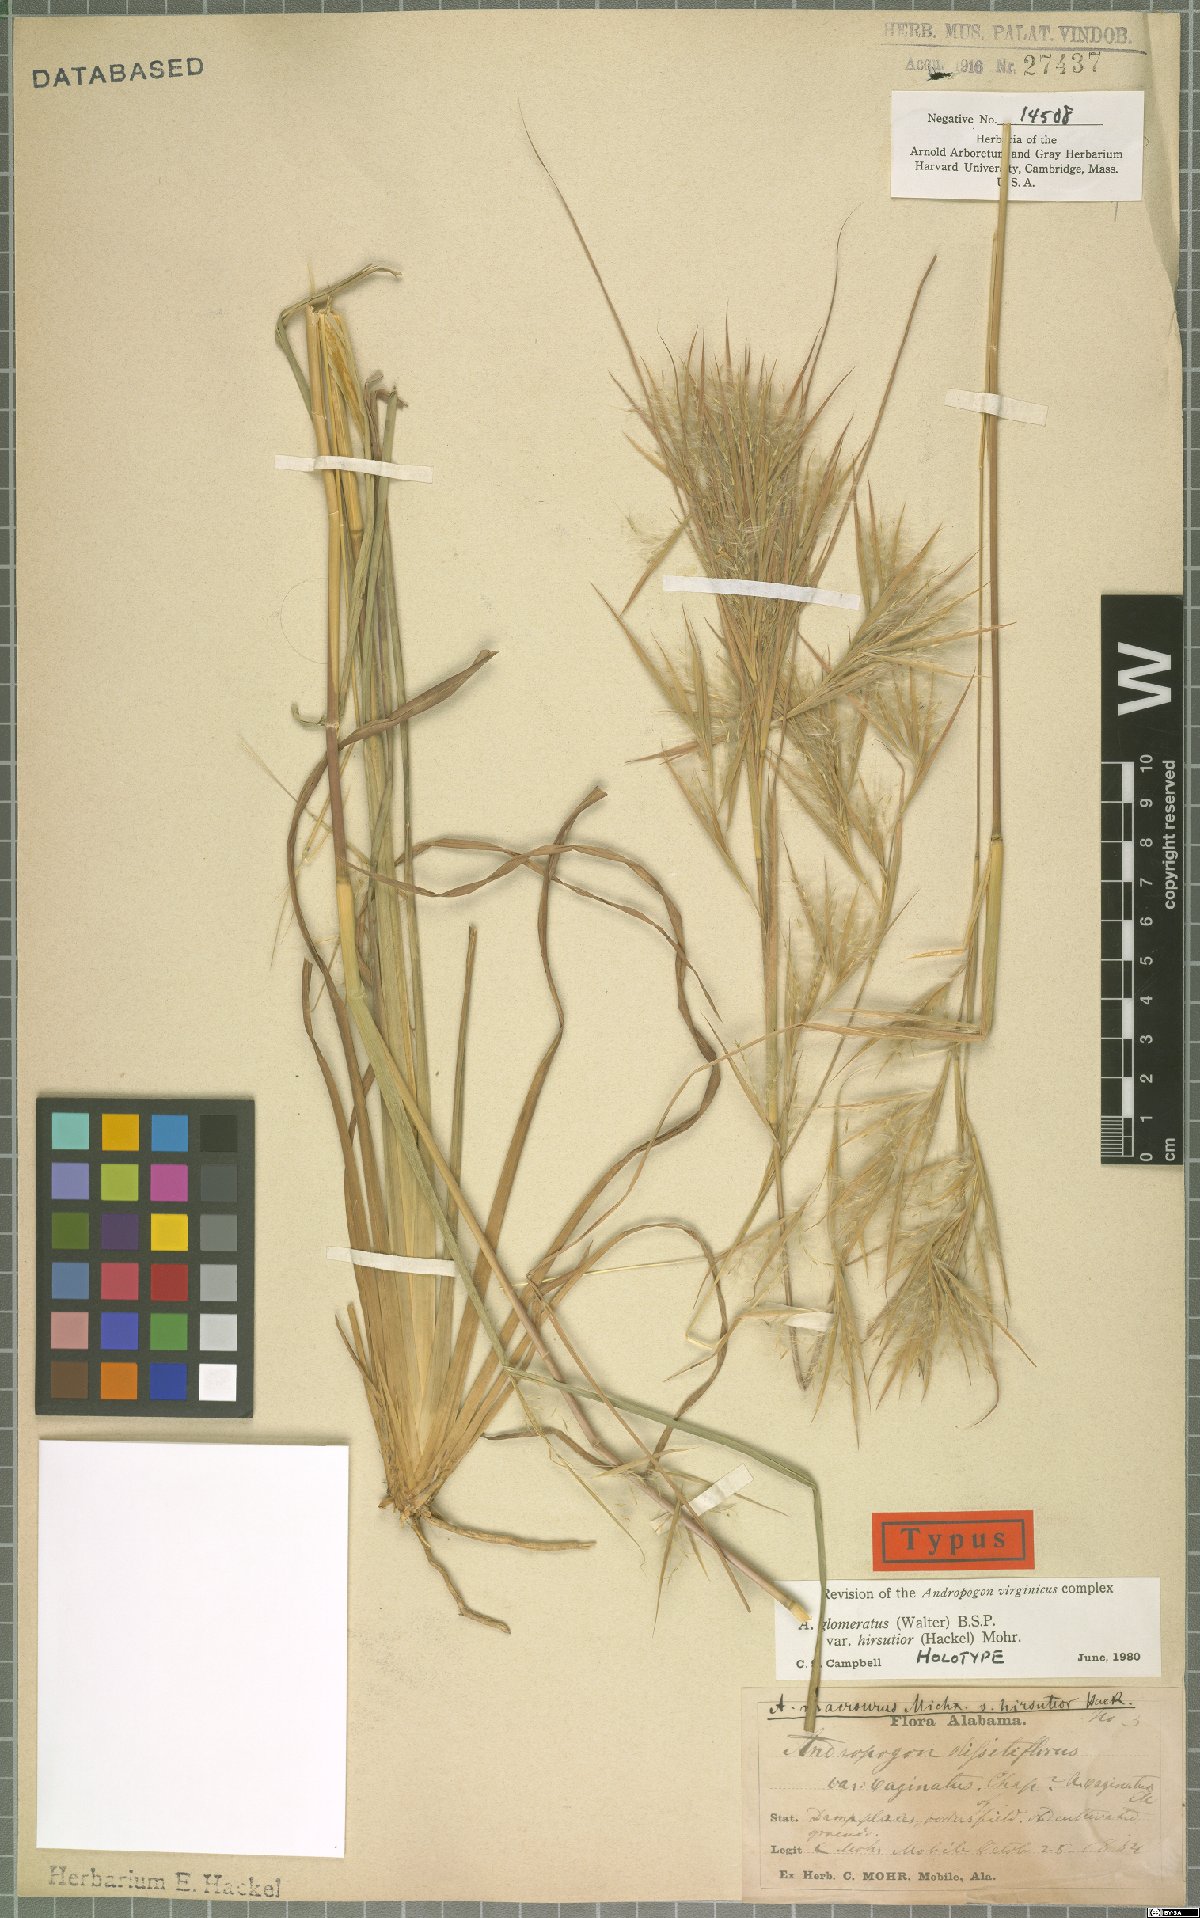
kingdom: Plantae
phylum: Tracheophyta
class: Liliopsida
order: Poales
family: Poaceae
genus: Andropogon
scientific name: Andropogon hirsutior
